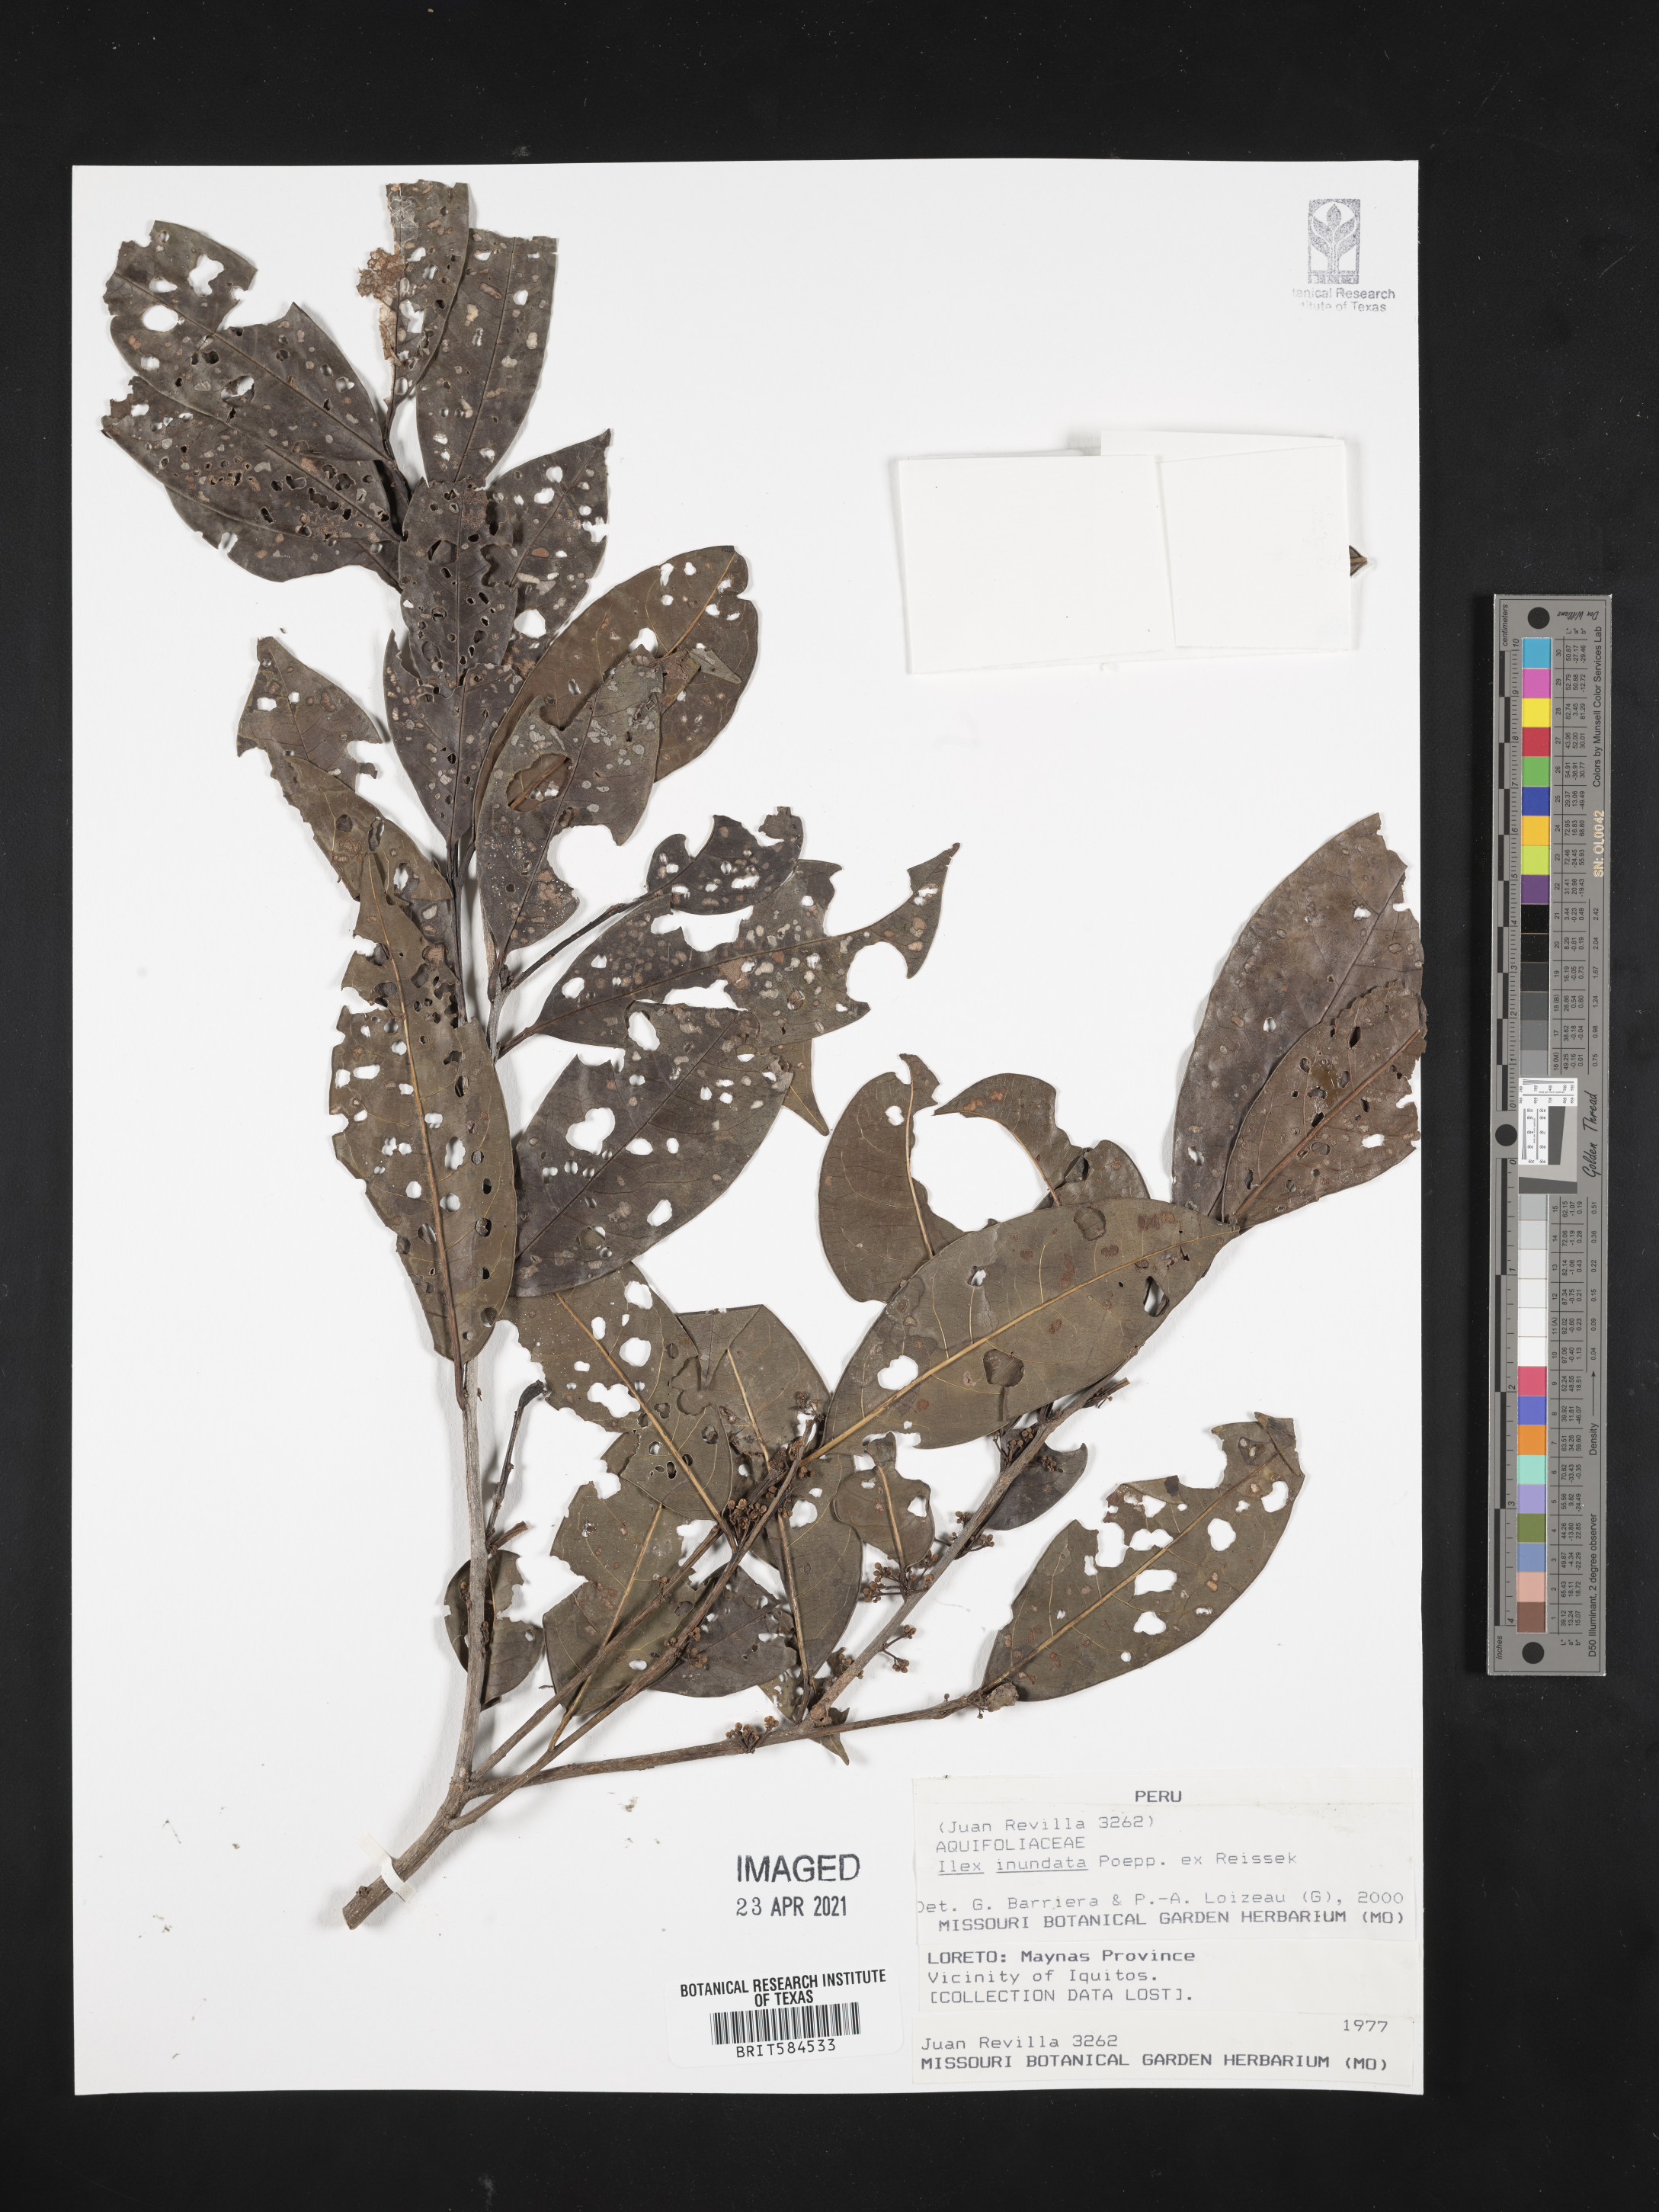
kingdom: Plantae
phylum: Tracheophyta
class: Magnoliopsida
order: Aquifoliales
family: Aquifoliaceae
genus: Ilex
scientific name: Ilex inundata
